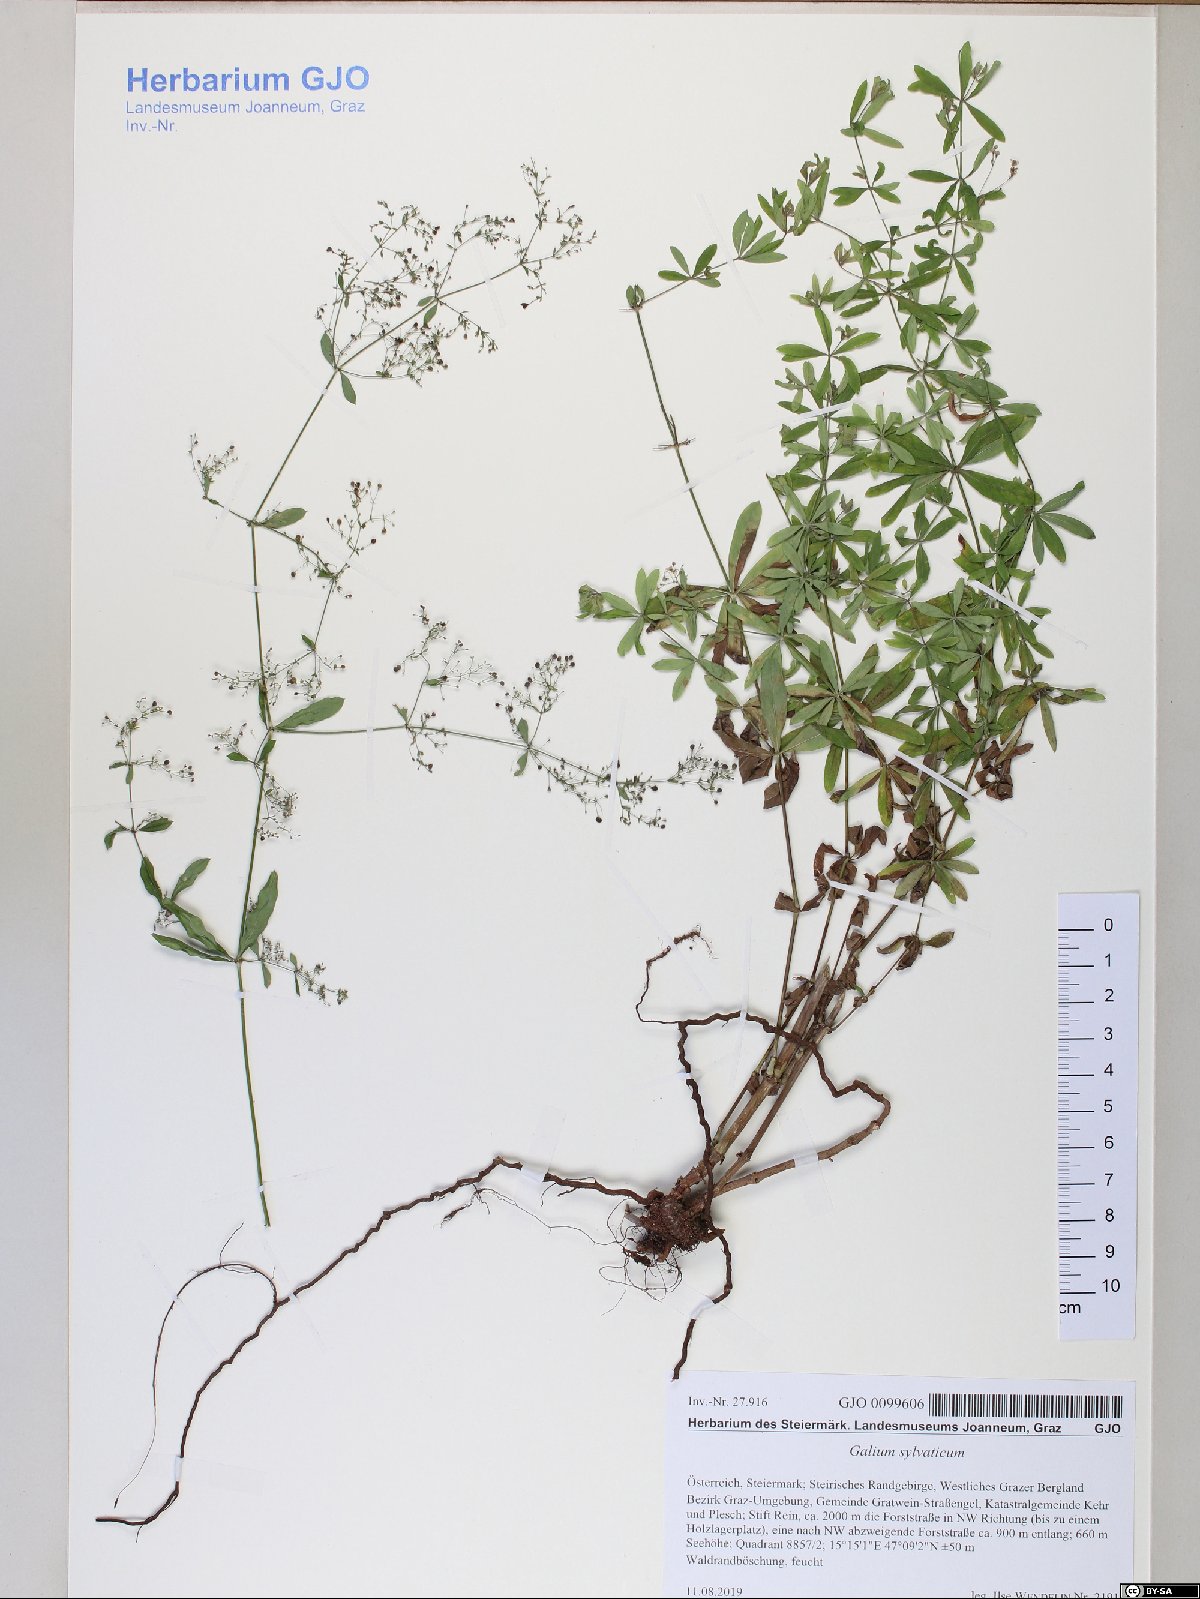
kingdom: Plantae
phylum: Tracheophyta
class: Magnoliopsida
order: Gentianales
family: Rubiaceae
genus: Galium
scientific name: Galium sylvaticum
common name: Wood bedstraw
